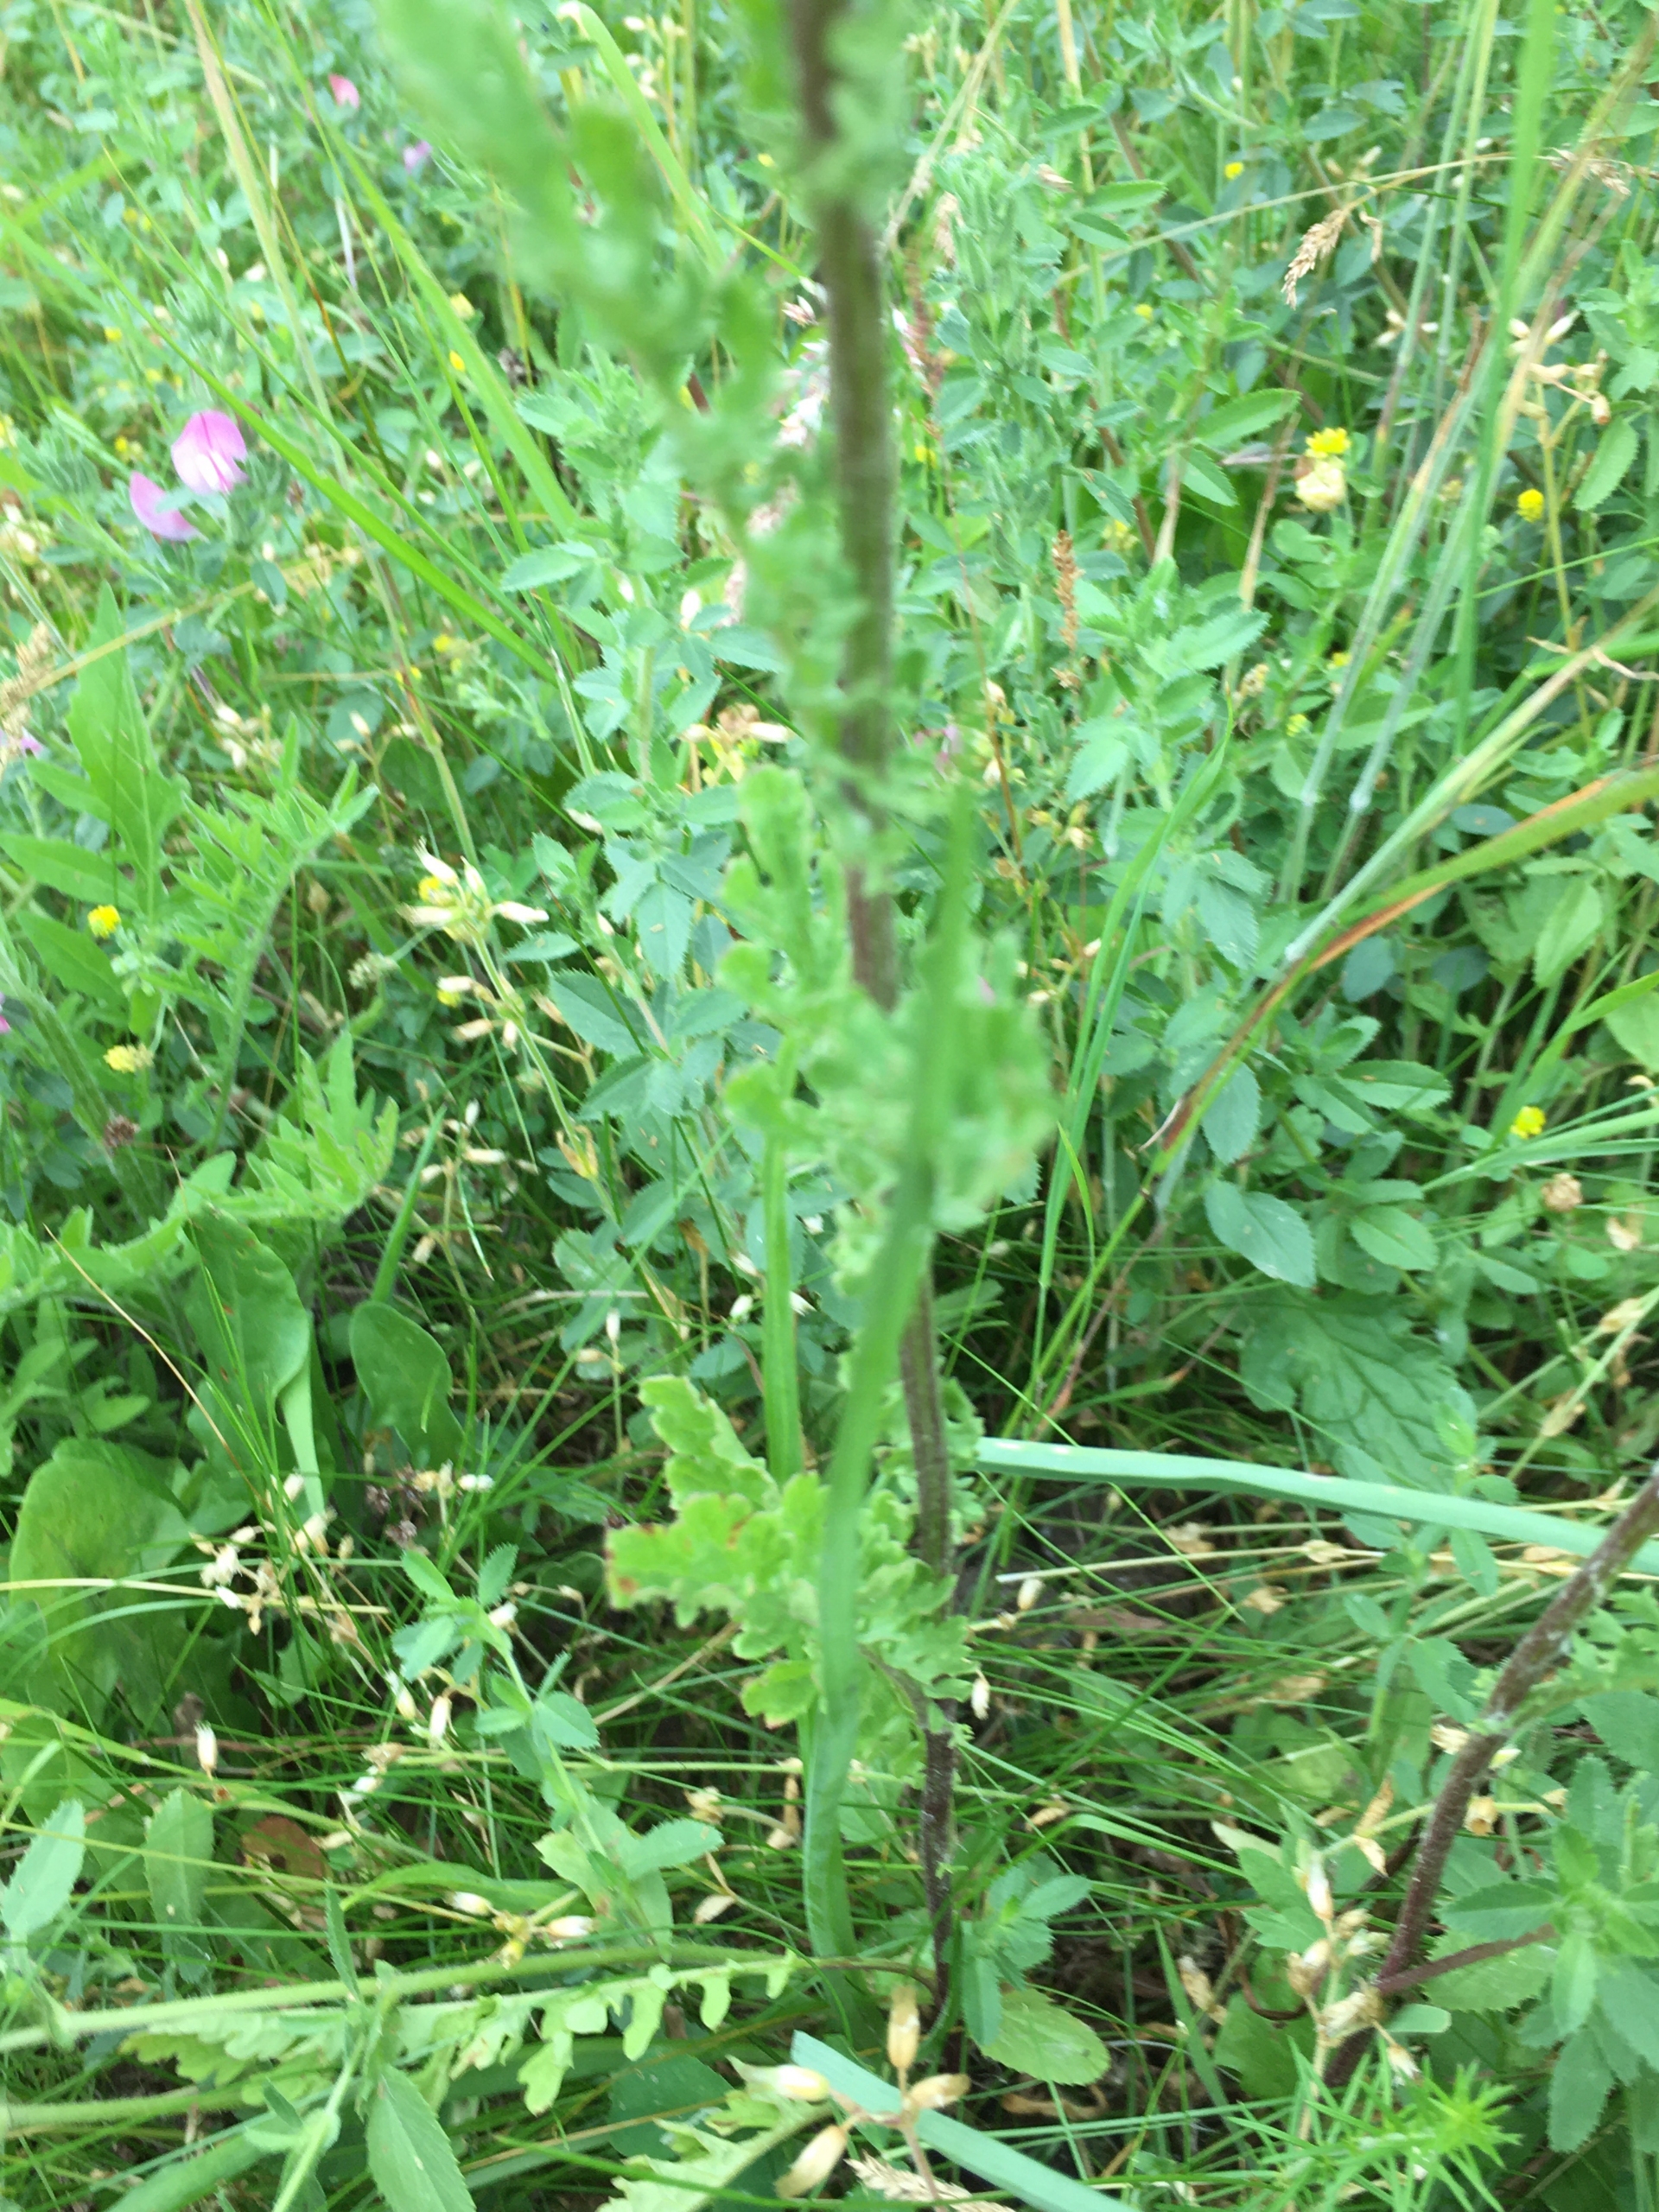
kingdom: Plantae
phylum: Tracheophyta
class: Magnoliopsida
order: Asterales
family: Asteraceae
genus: Jacobaea
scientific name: Jacobaea vulgaris
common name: Eng-brandbæger
